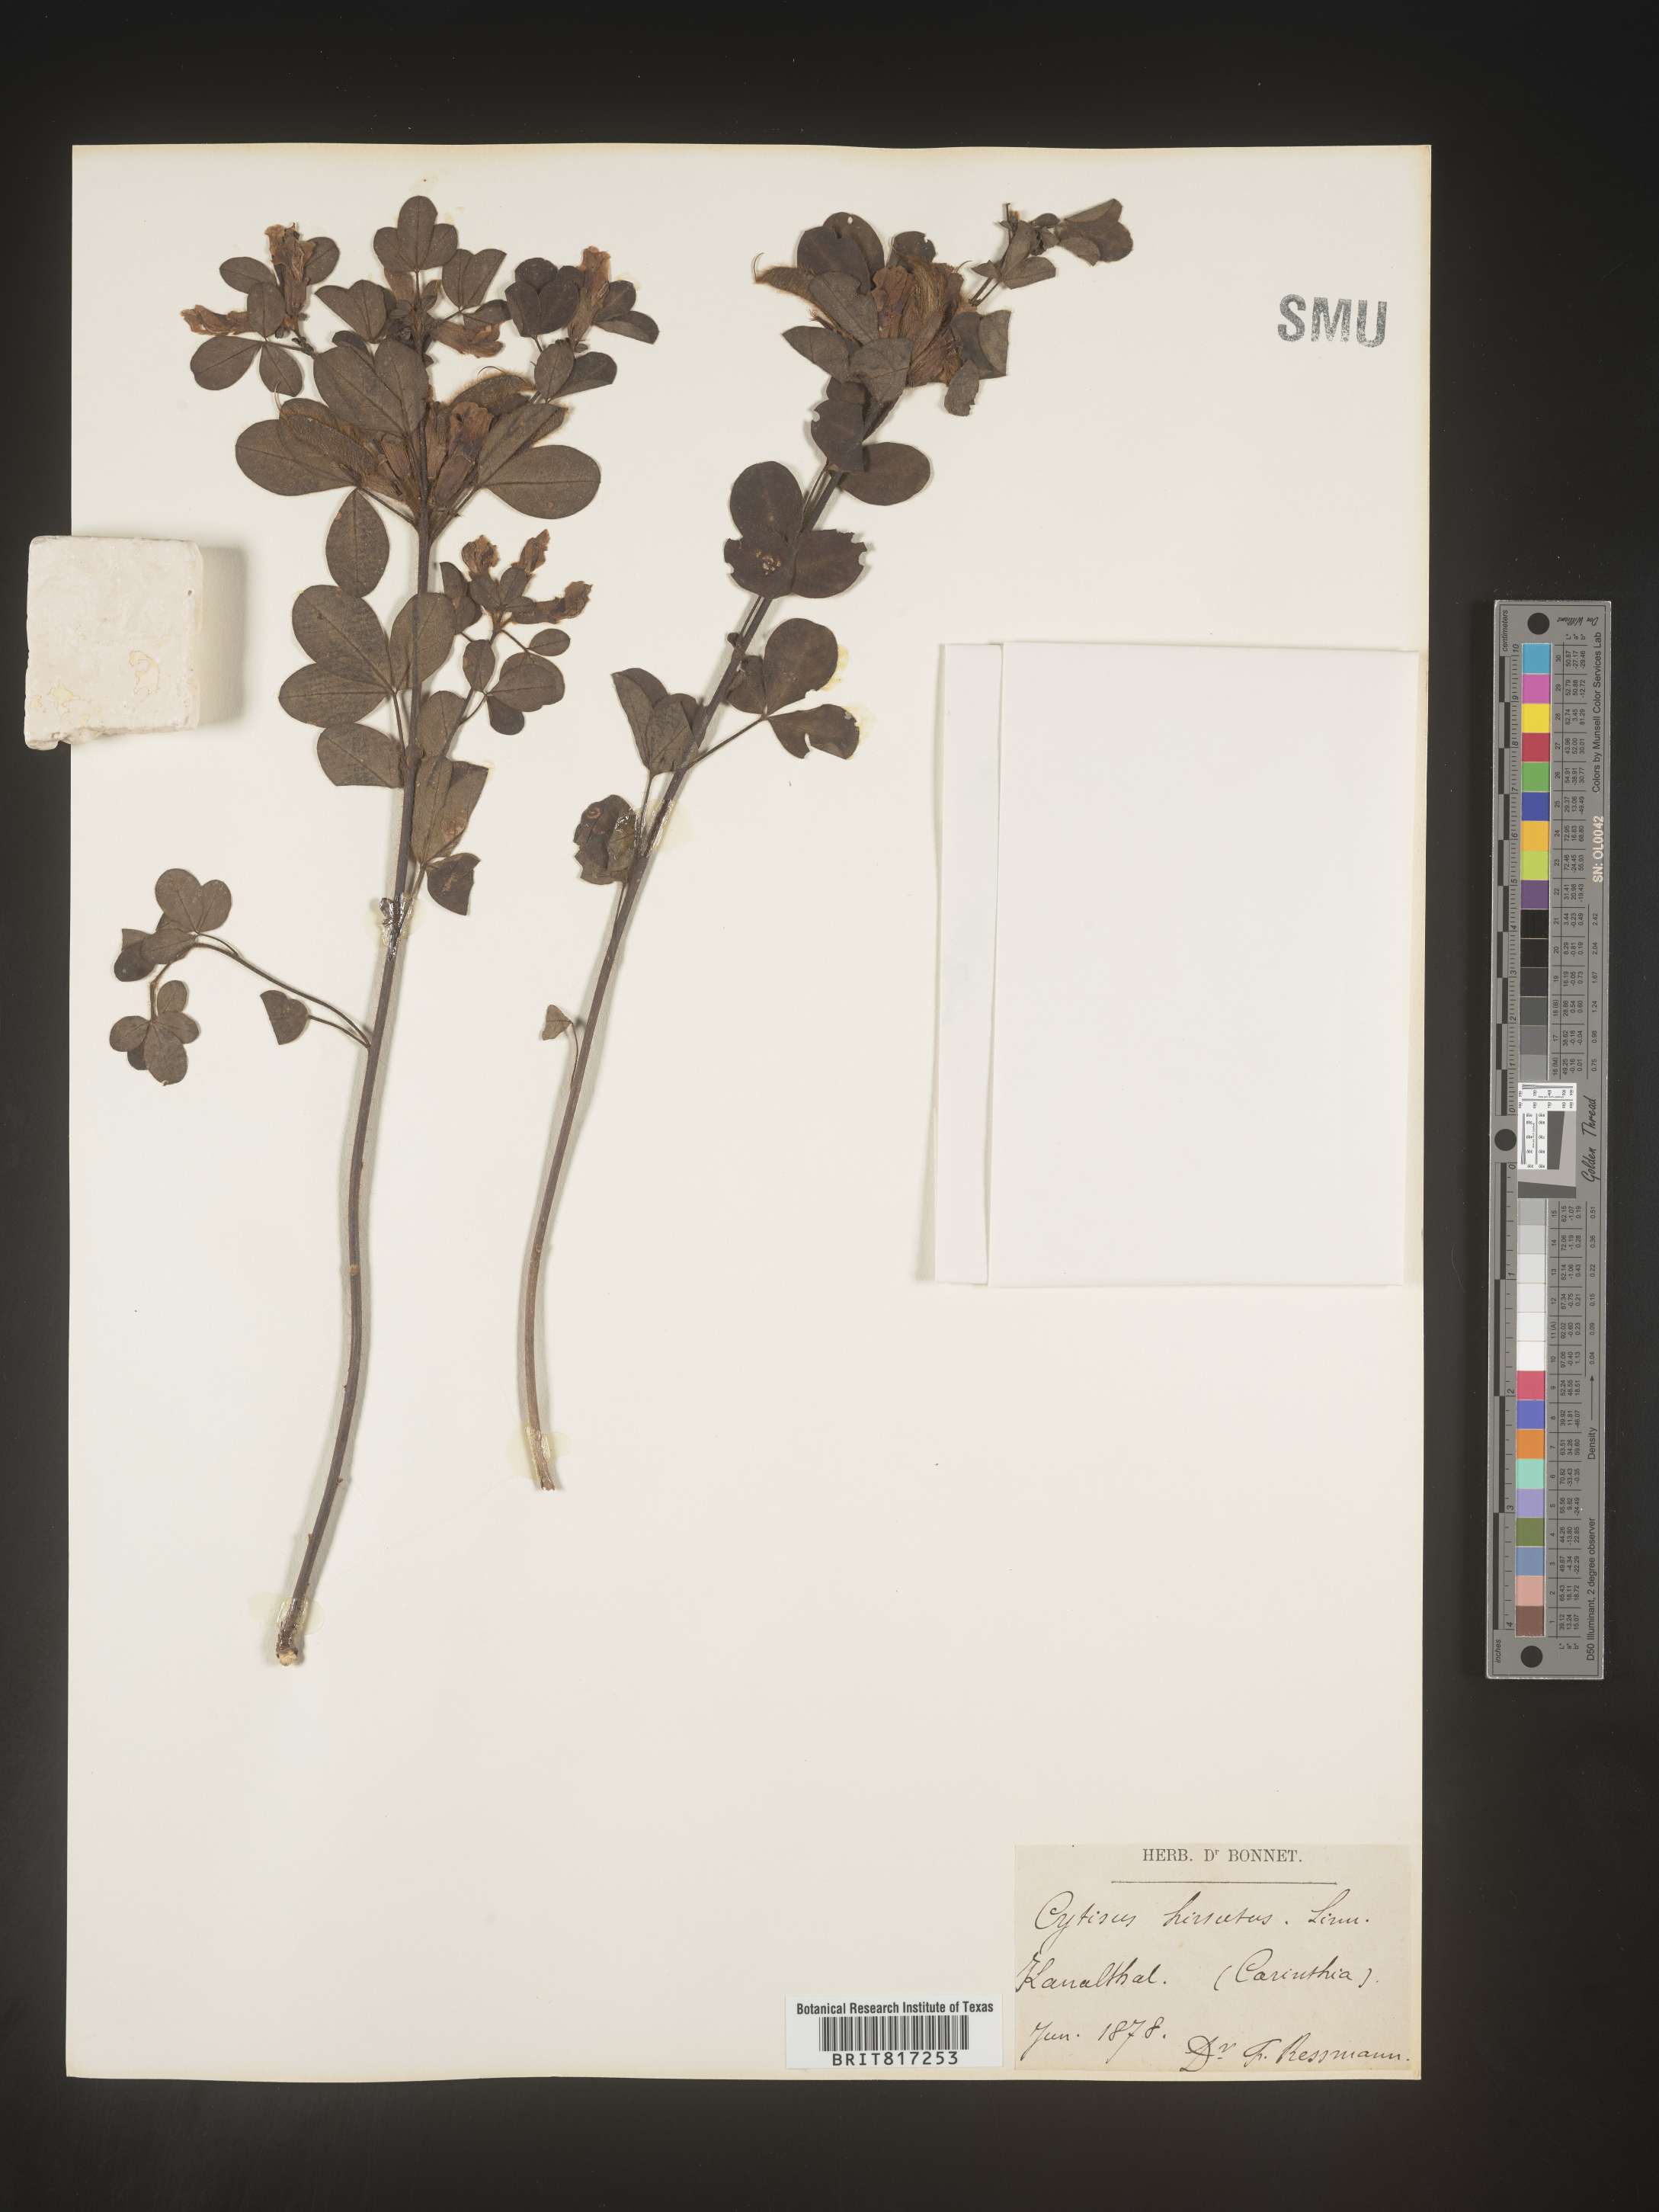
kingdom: Plantae
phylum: Tracheophyta
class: Magnoliopsida
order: Fabales
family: Fabaceae
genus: Cytisus
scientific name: Cytisus
